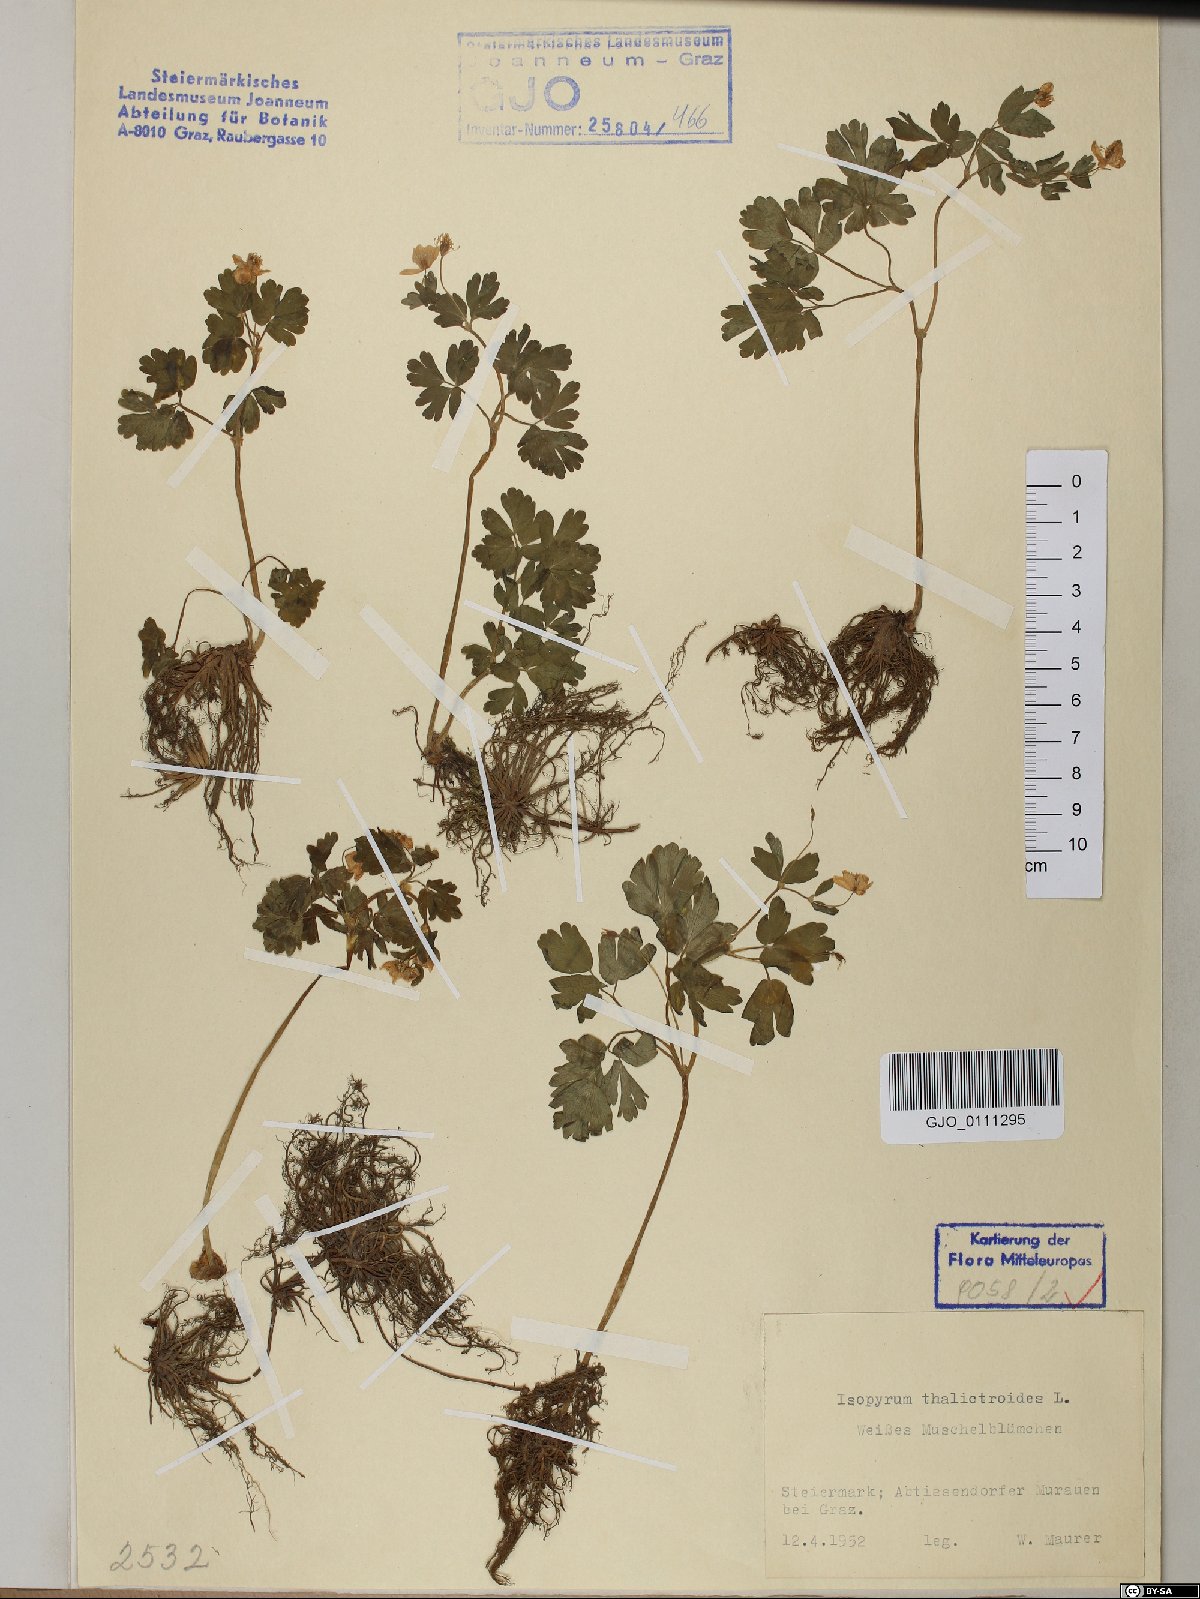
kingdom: Plantae
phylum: Tracheophyta
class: Magnoliopsida
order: Ranunculales
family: Ranunculaceae
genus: Isopyrum
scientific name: Isopyrum thalictroides
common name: Isopyrum
